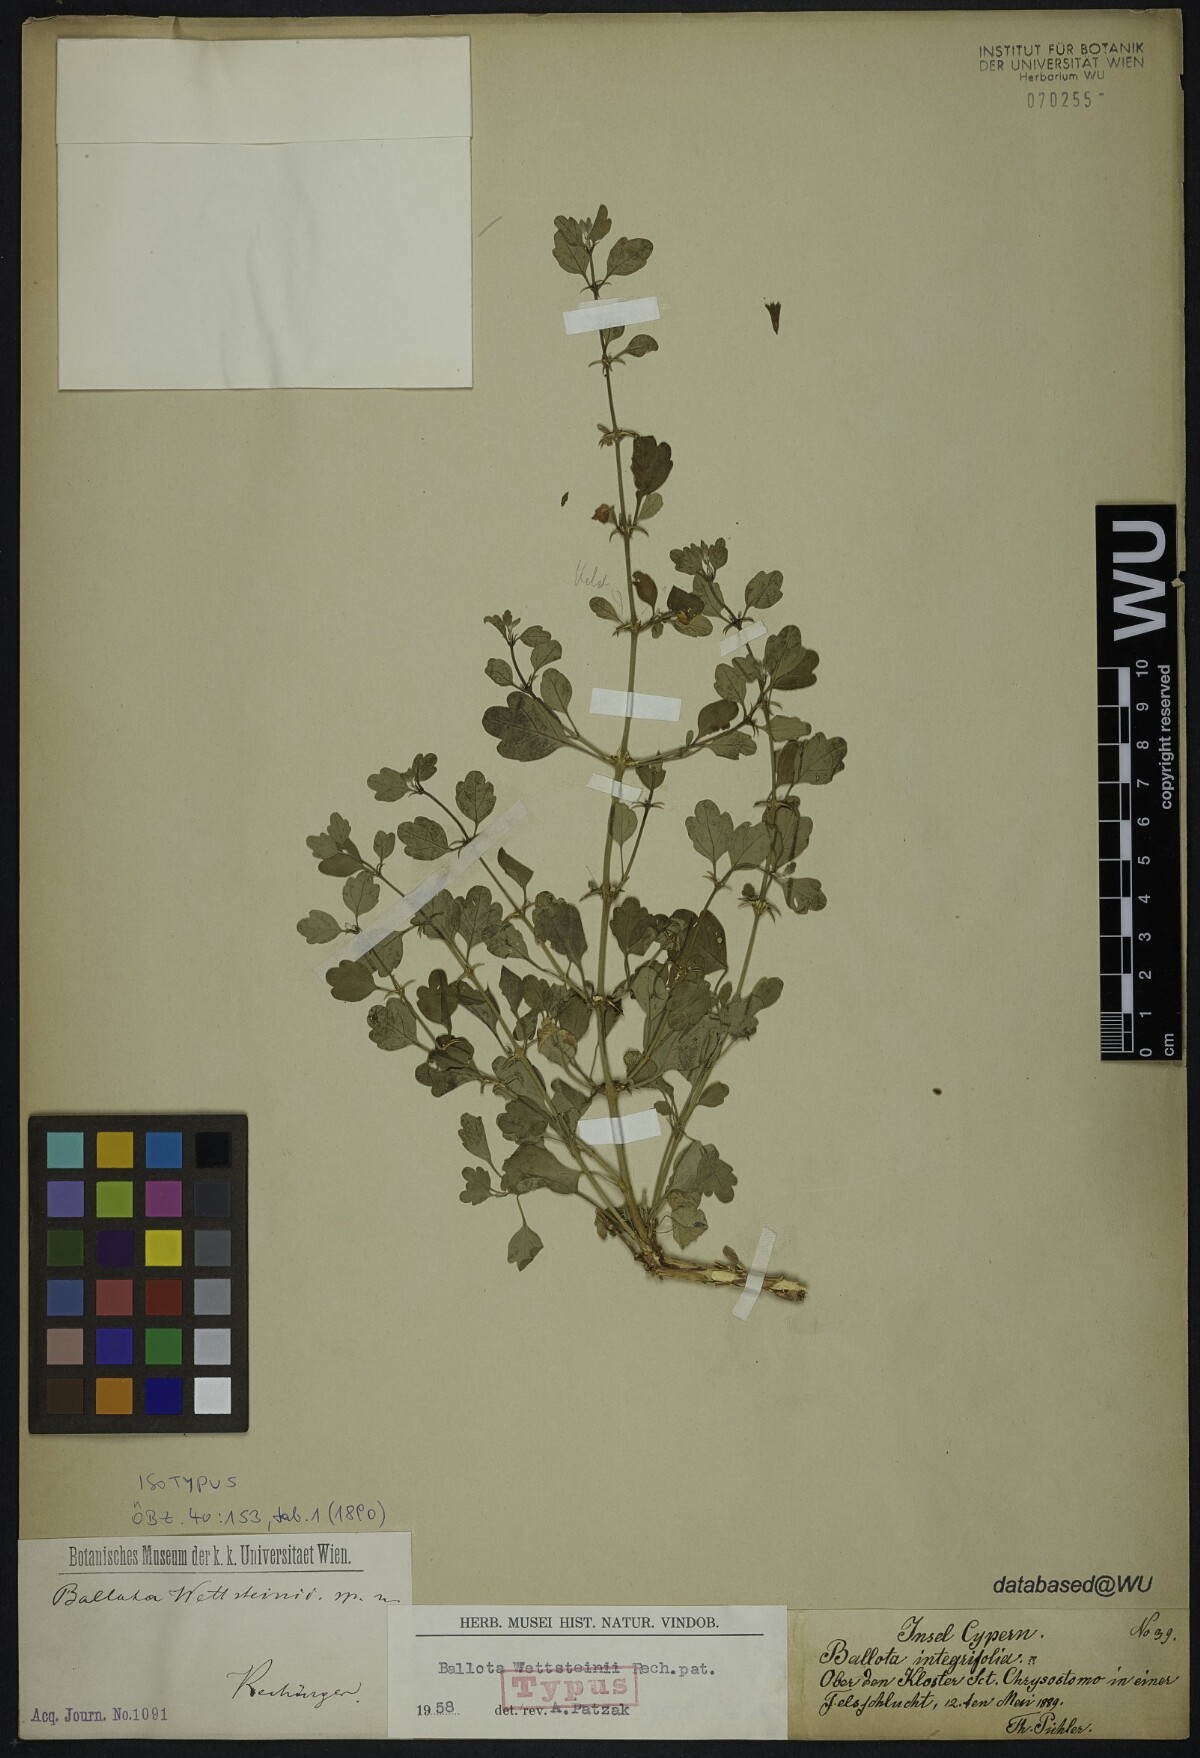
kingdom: Plantae
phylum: Tracheophyta
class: Magnoliopsida
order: Lamiales
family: Lamiaceae
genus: Acanthoprasium
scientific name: Acanthoprasium integrifolium
